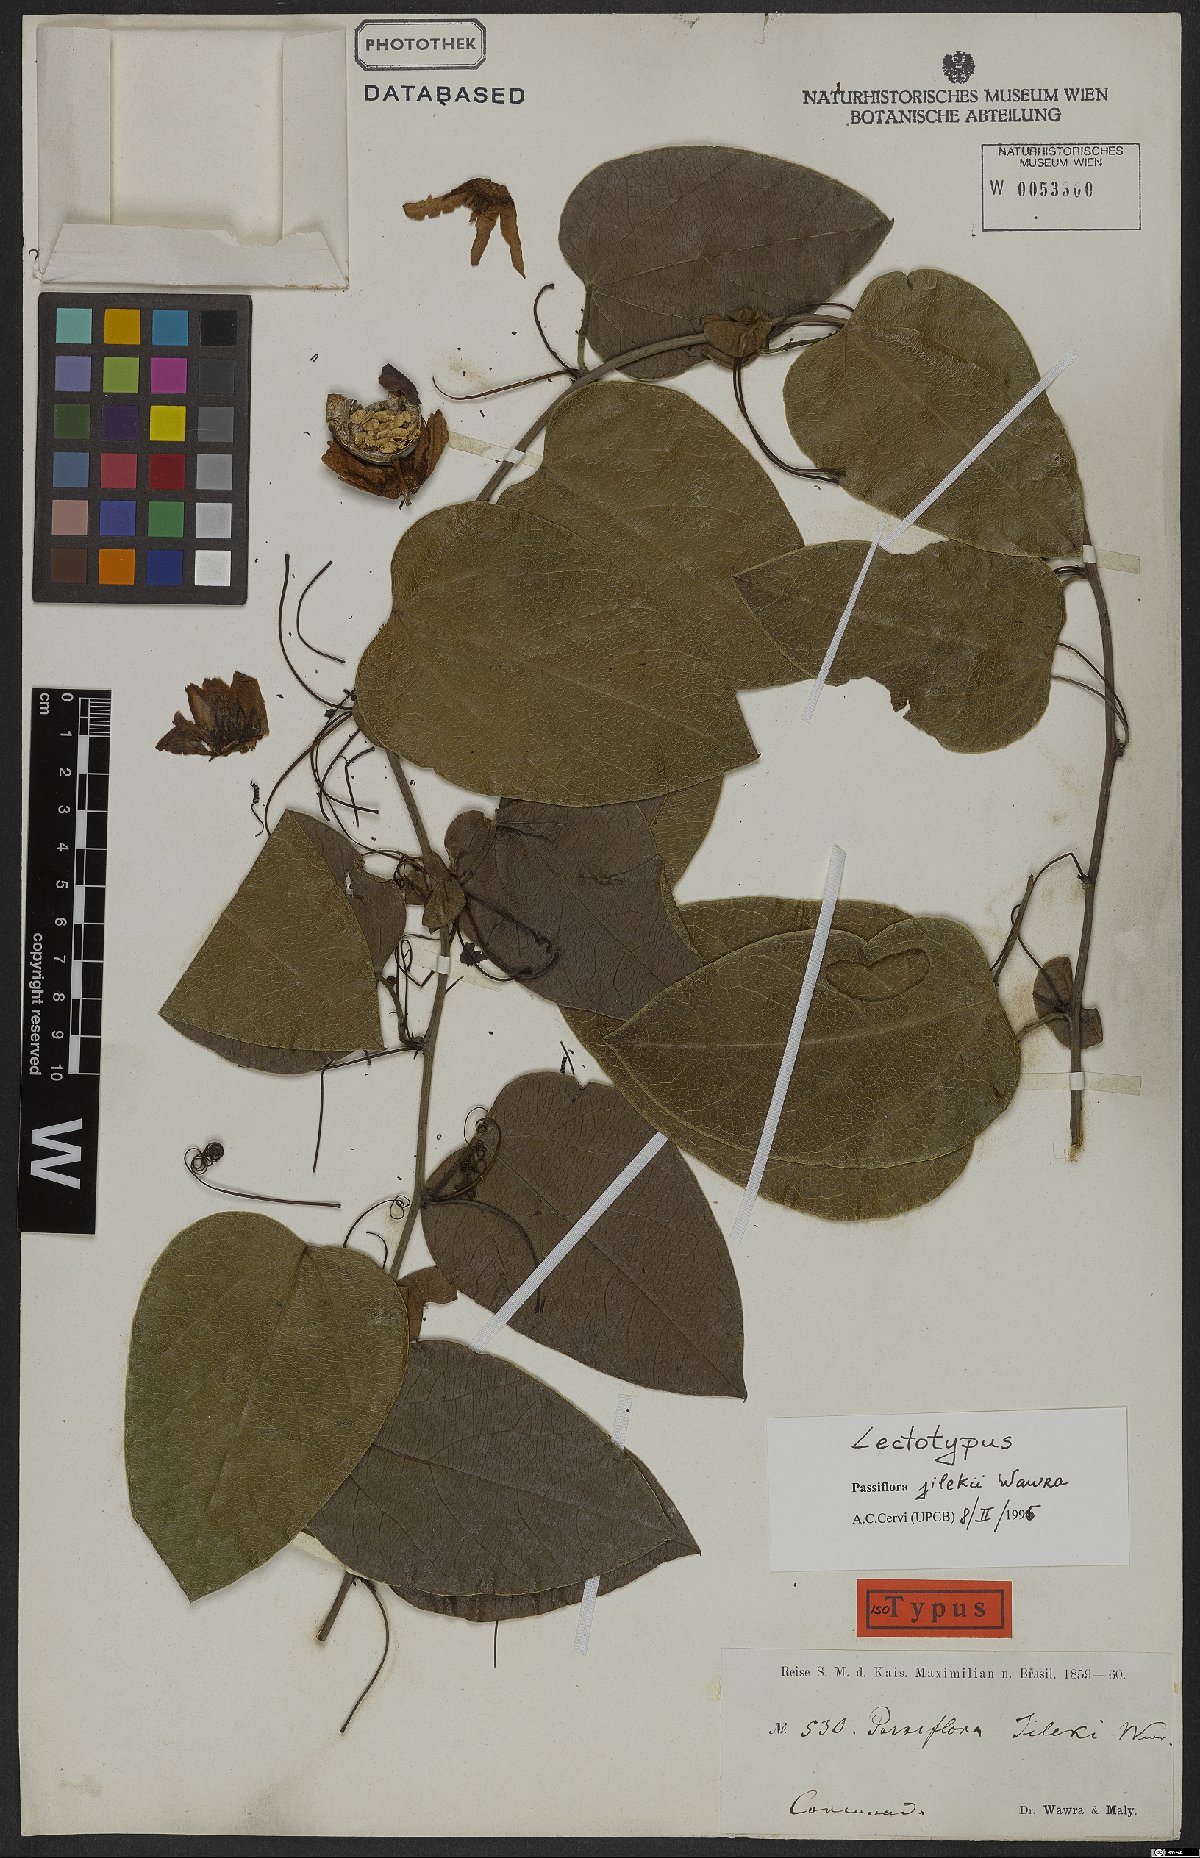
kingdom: Plantae
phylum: Tracheophyta
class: Magnoliopsida
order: Malpighiales
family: Passifloraceae
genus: Passiflora
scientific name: Passiflora mediterranea
